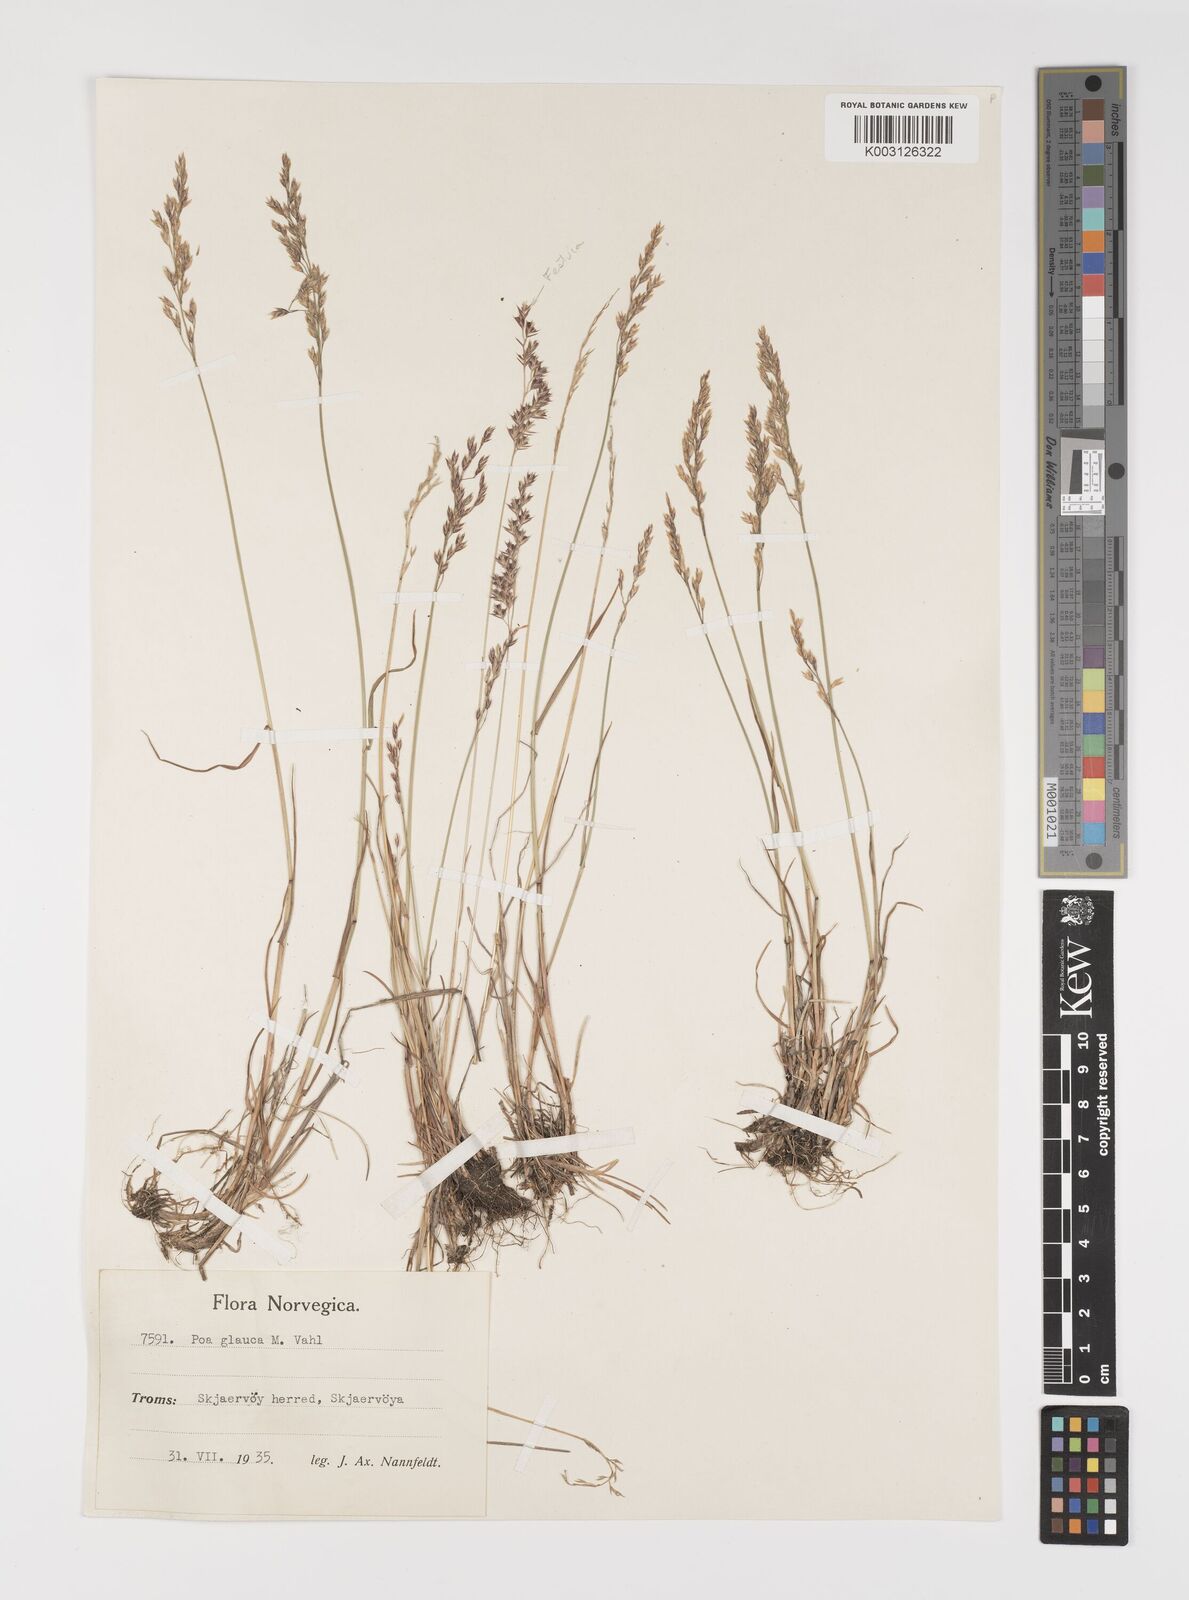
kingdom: Plantae
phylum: Tracheophyta
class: Liliopsida
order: Poales
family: Poaceae
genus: Poa
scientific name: Poa glauca
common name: Glaucous bluegrass
